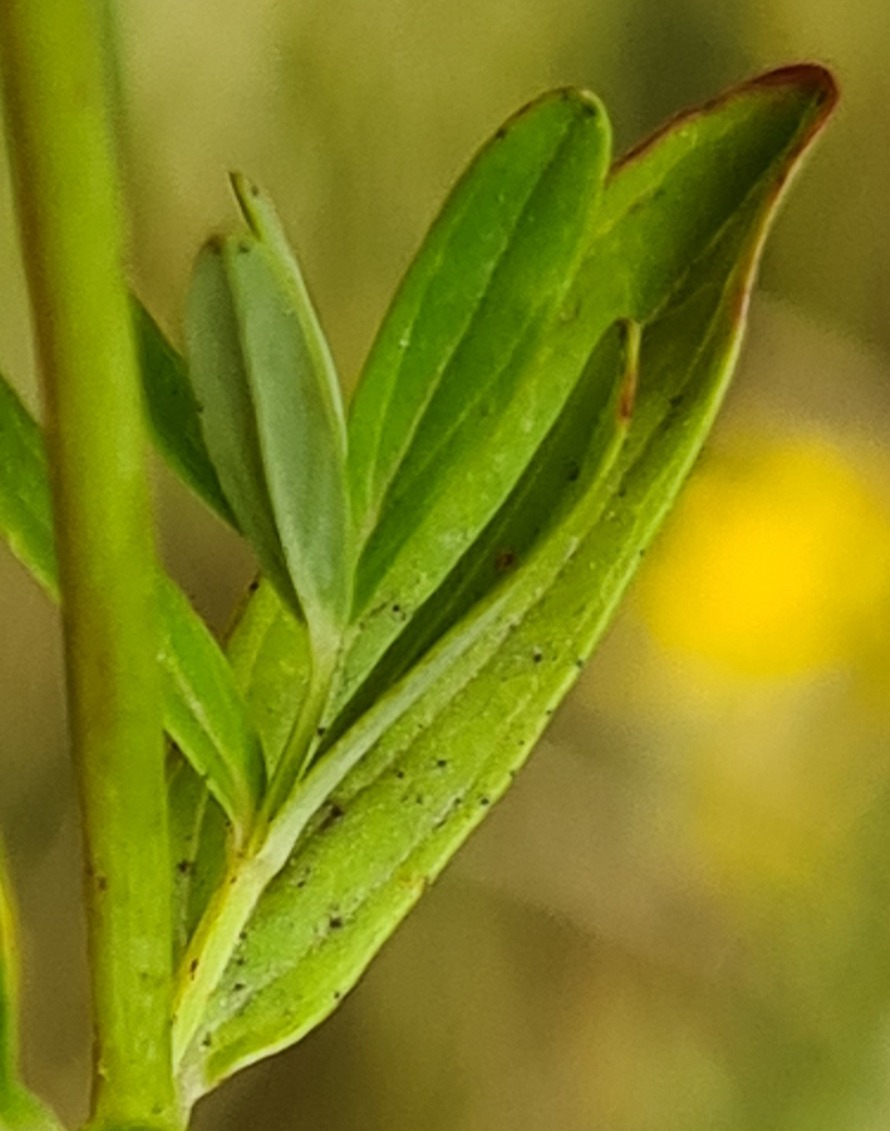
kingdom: Plantae
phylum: Tracheophyta
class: Magnoliopsida
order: Malpighiales
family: Hypericaceae
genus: Hypericum
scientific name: Hypericum perforatum
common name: Prikbladet perikon
